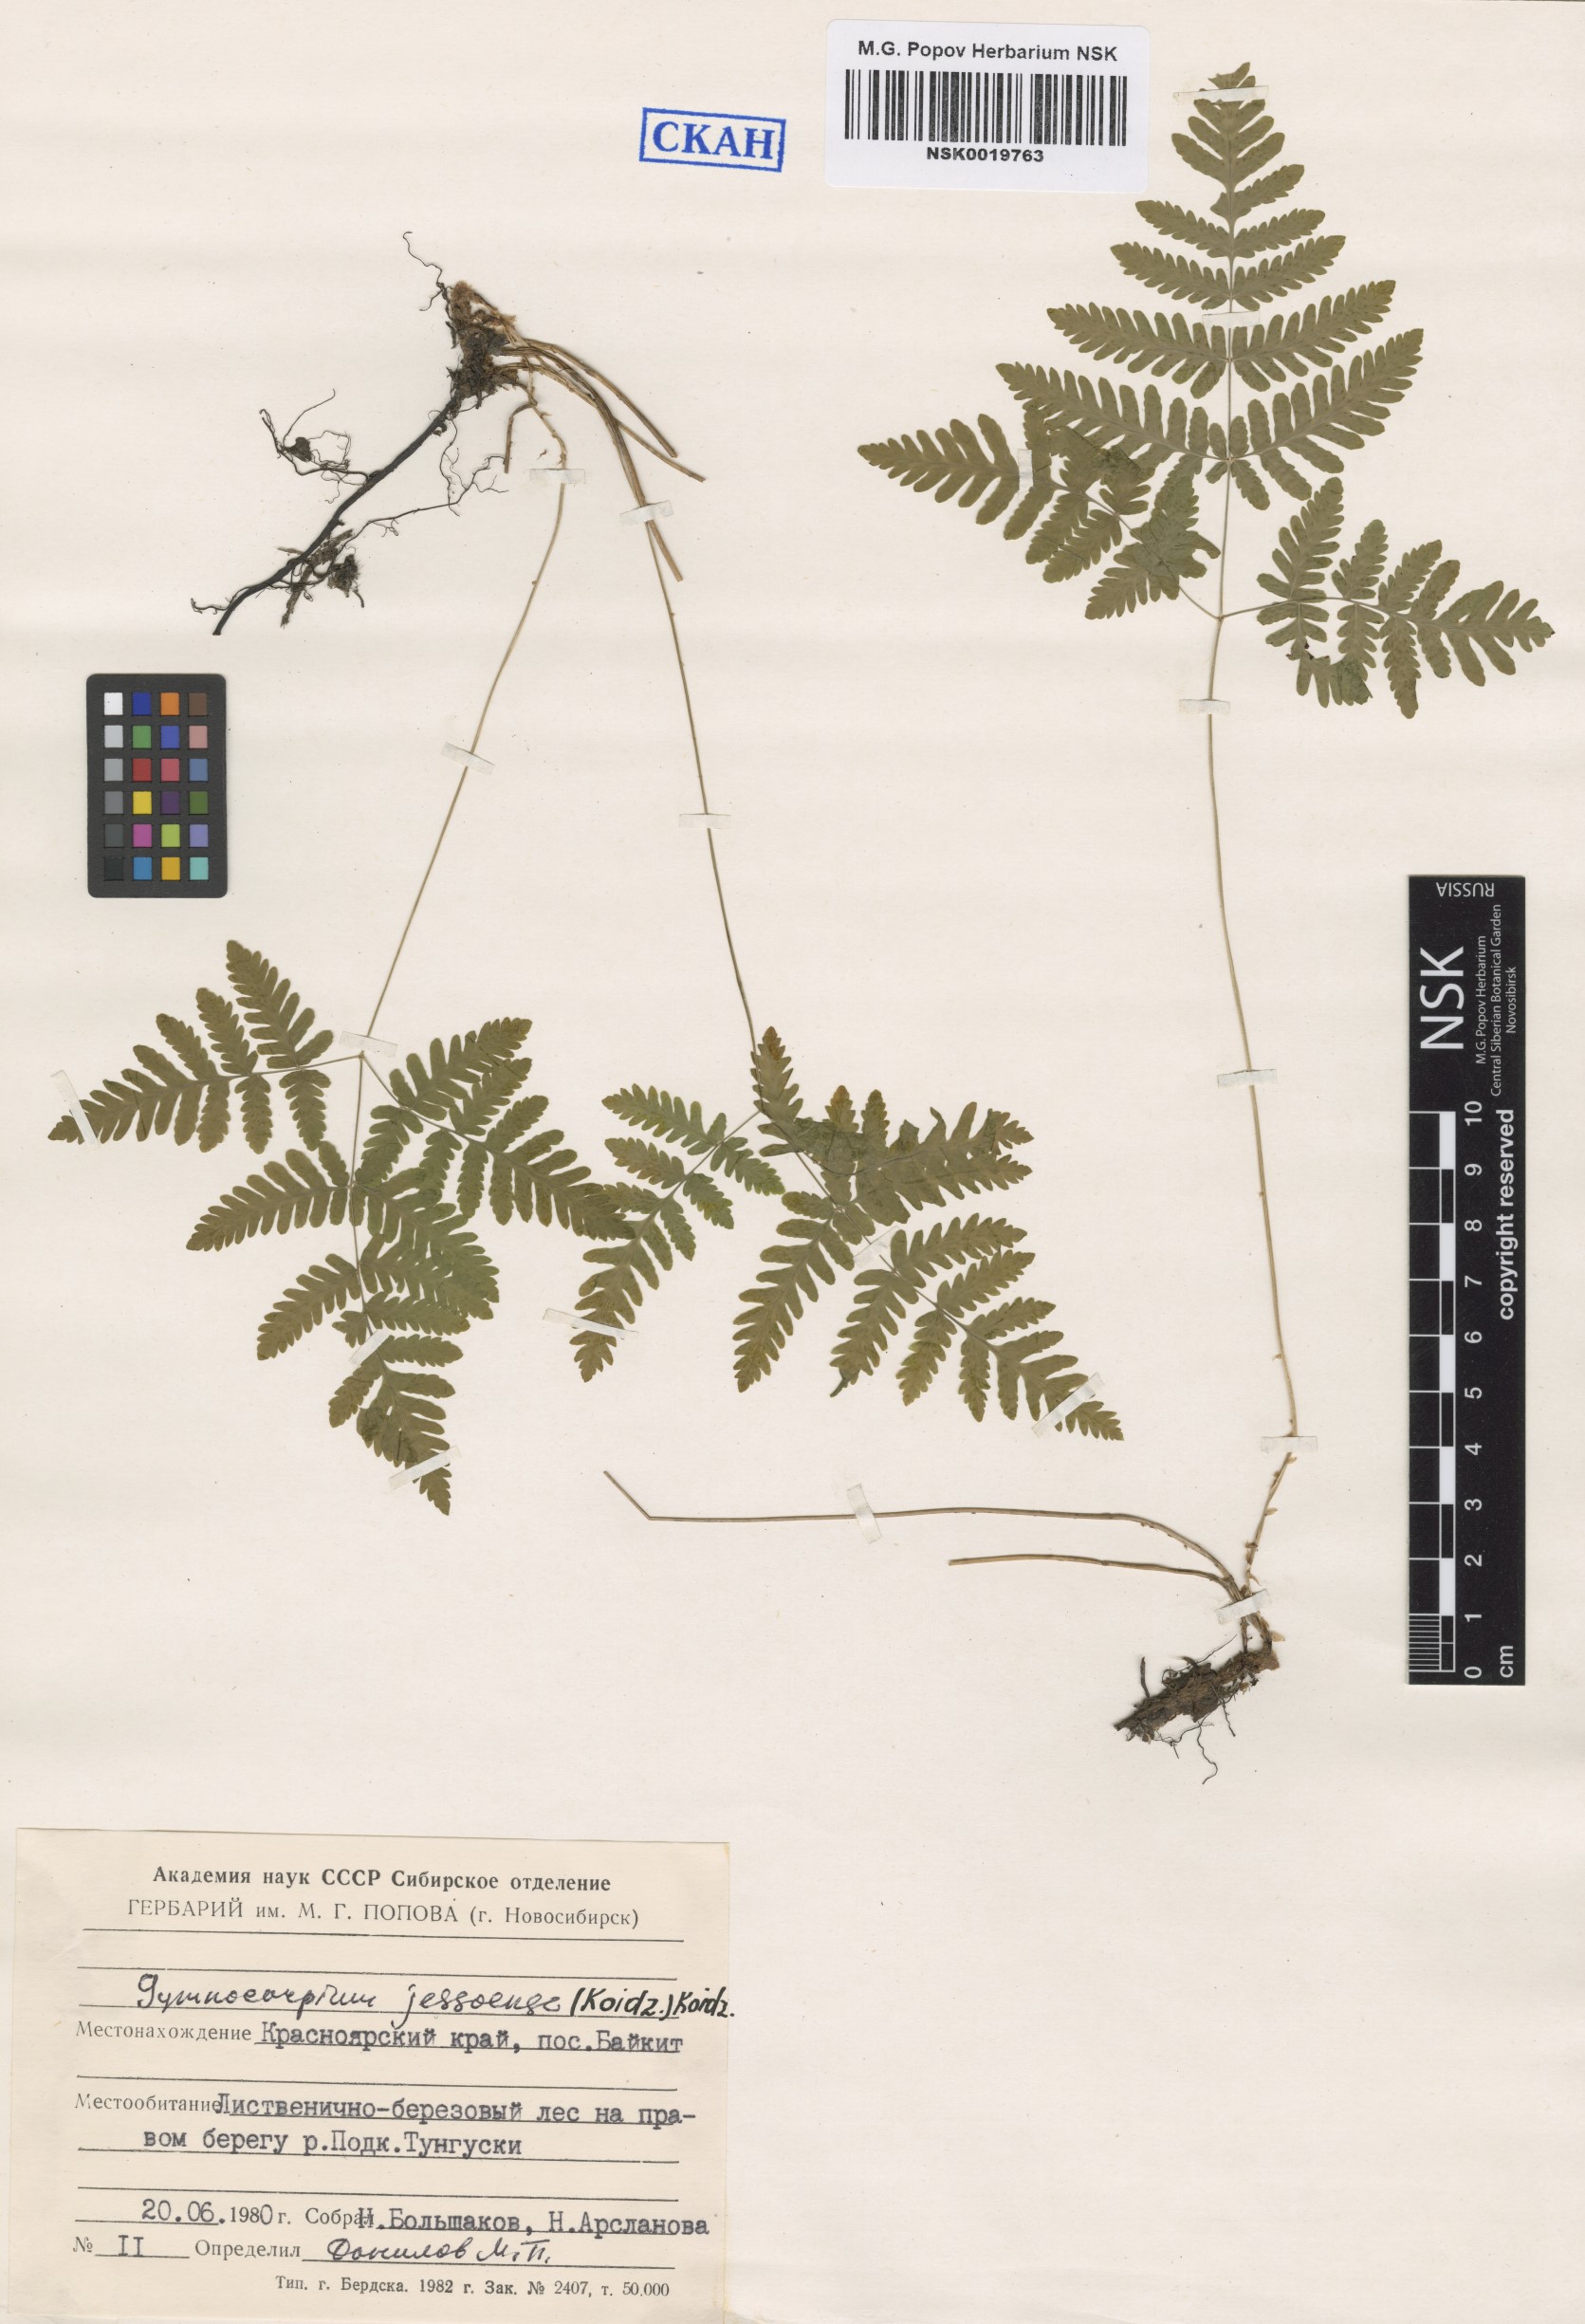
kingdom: Plantae
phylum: Tracheophyta
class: Polypodiopsida
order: Polypodiales
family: Cystopteridaceae
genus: Gymnocarpium
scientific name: Gymnocarpium jessoense
